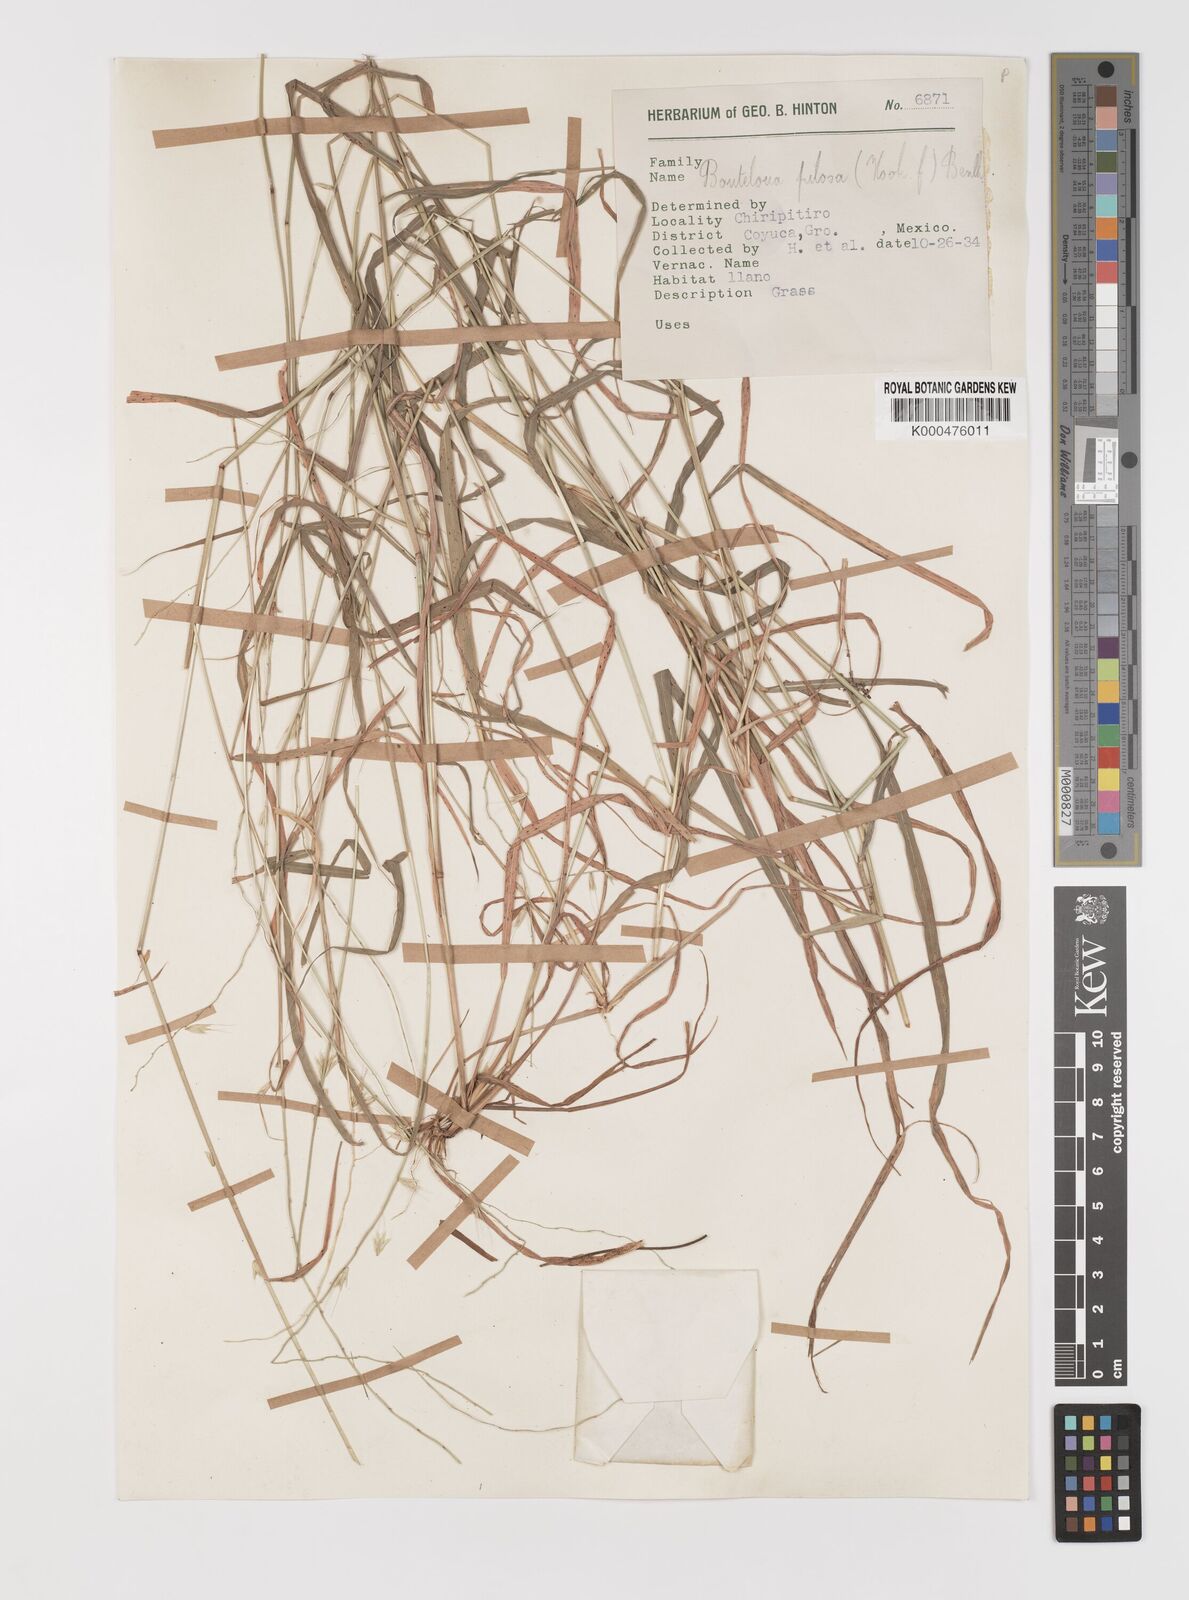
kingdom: Plantae
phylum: Tracheophyta
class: Liliopsida
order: Poales
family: Poaceae
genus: Bouteloua
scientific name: Bouteloua disticha
